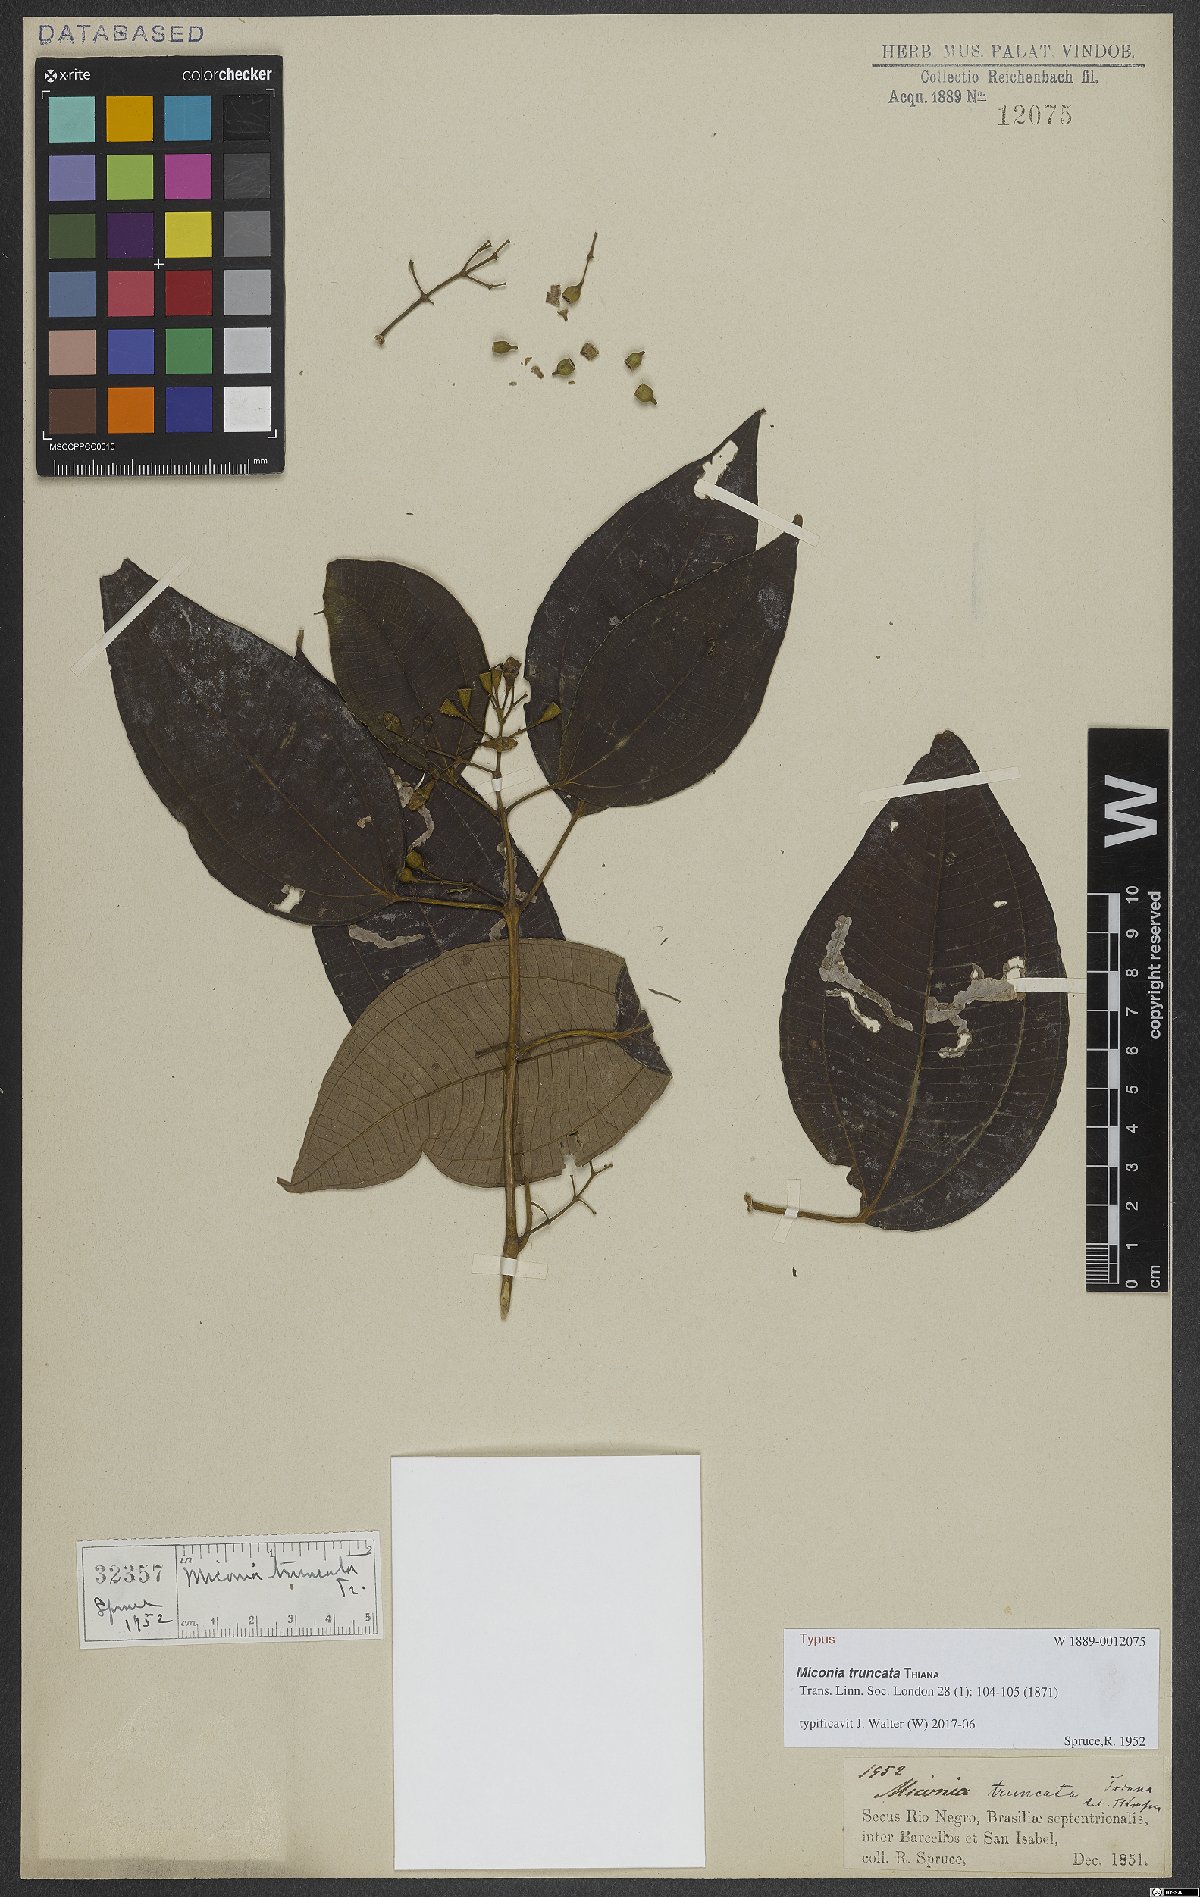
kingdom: Plantae
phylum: Tracheophyta
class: Magnoliopsida
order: Myrtales
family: Melastomataceae
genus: Miconia
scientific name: Miconia truncata
